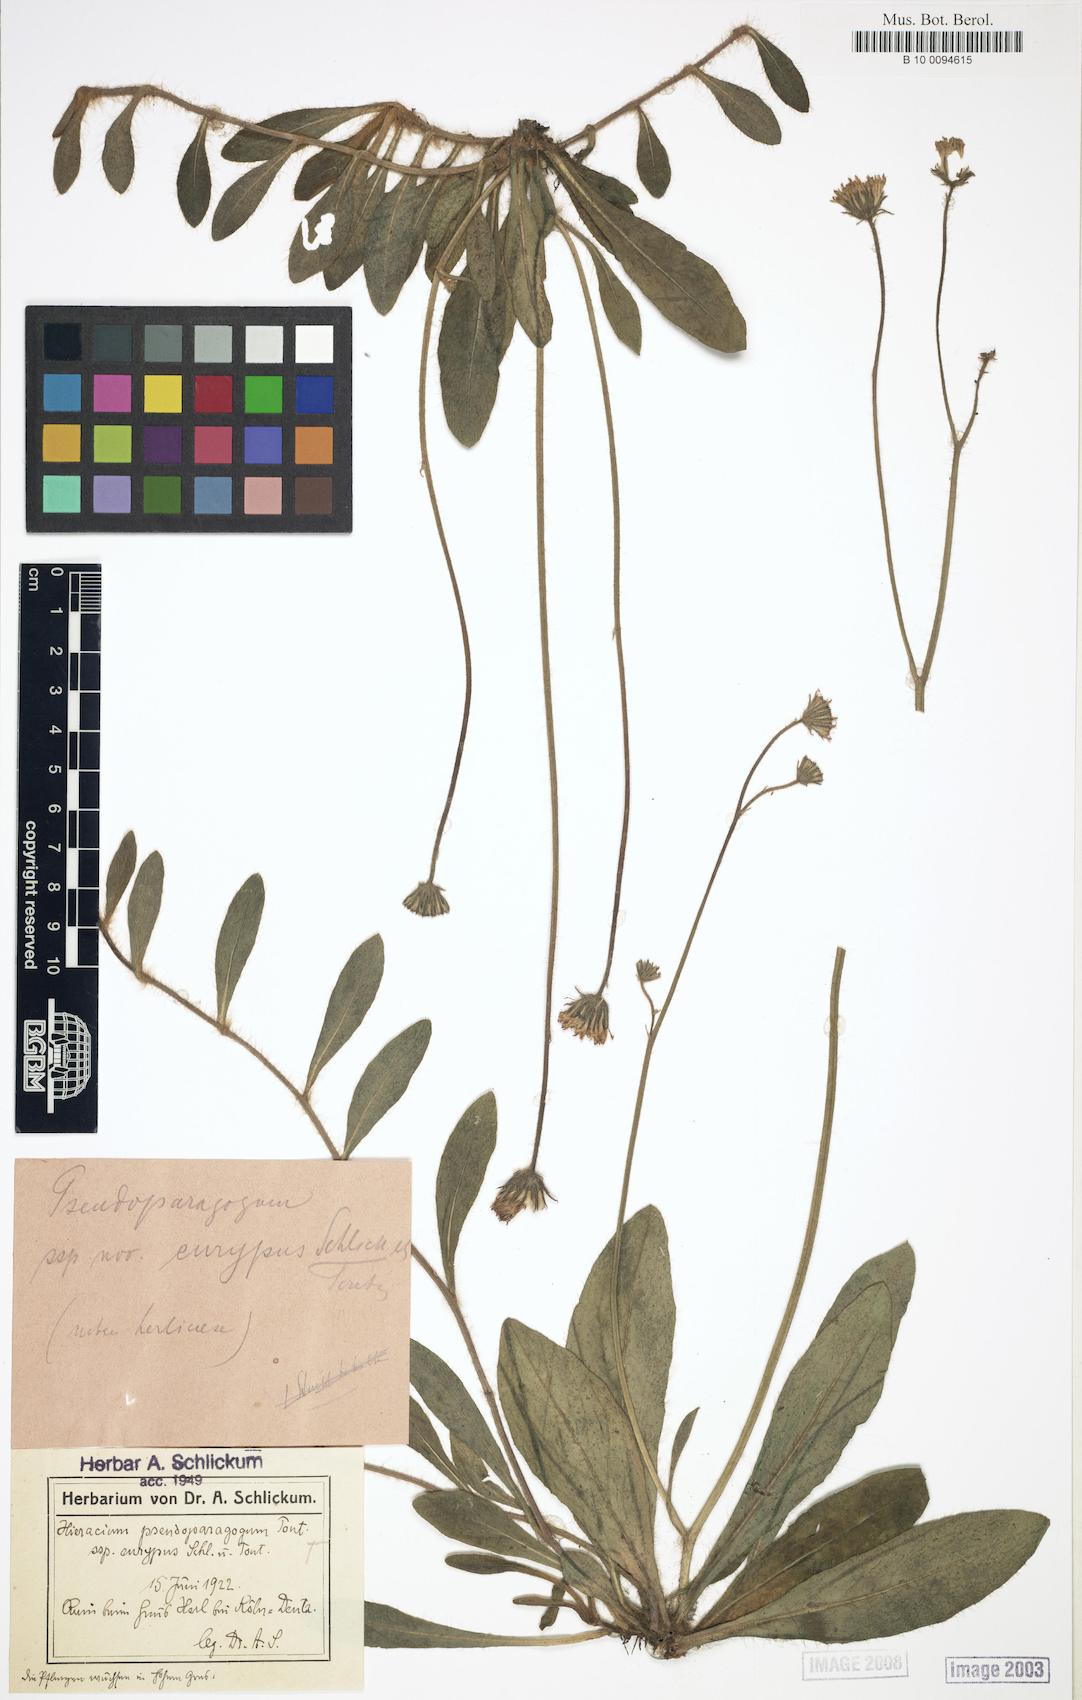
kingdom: Plantae
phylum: Tracheophyta
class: Magnoliopsida
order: Asterales
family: Asteraceae
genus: Pilosella
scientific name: Pilosella pseudoparagoga
